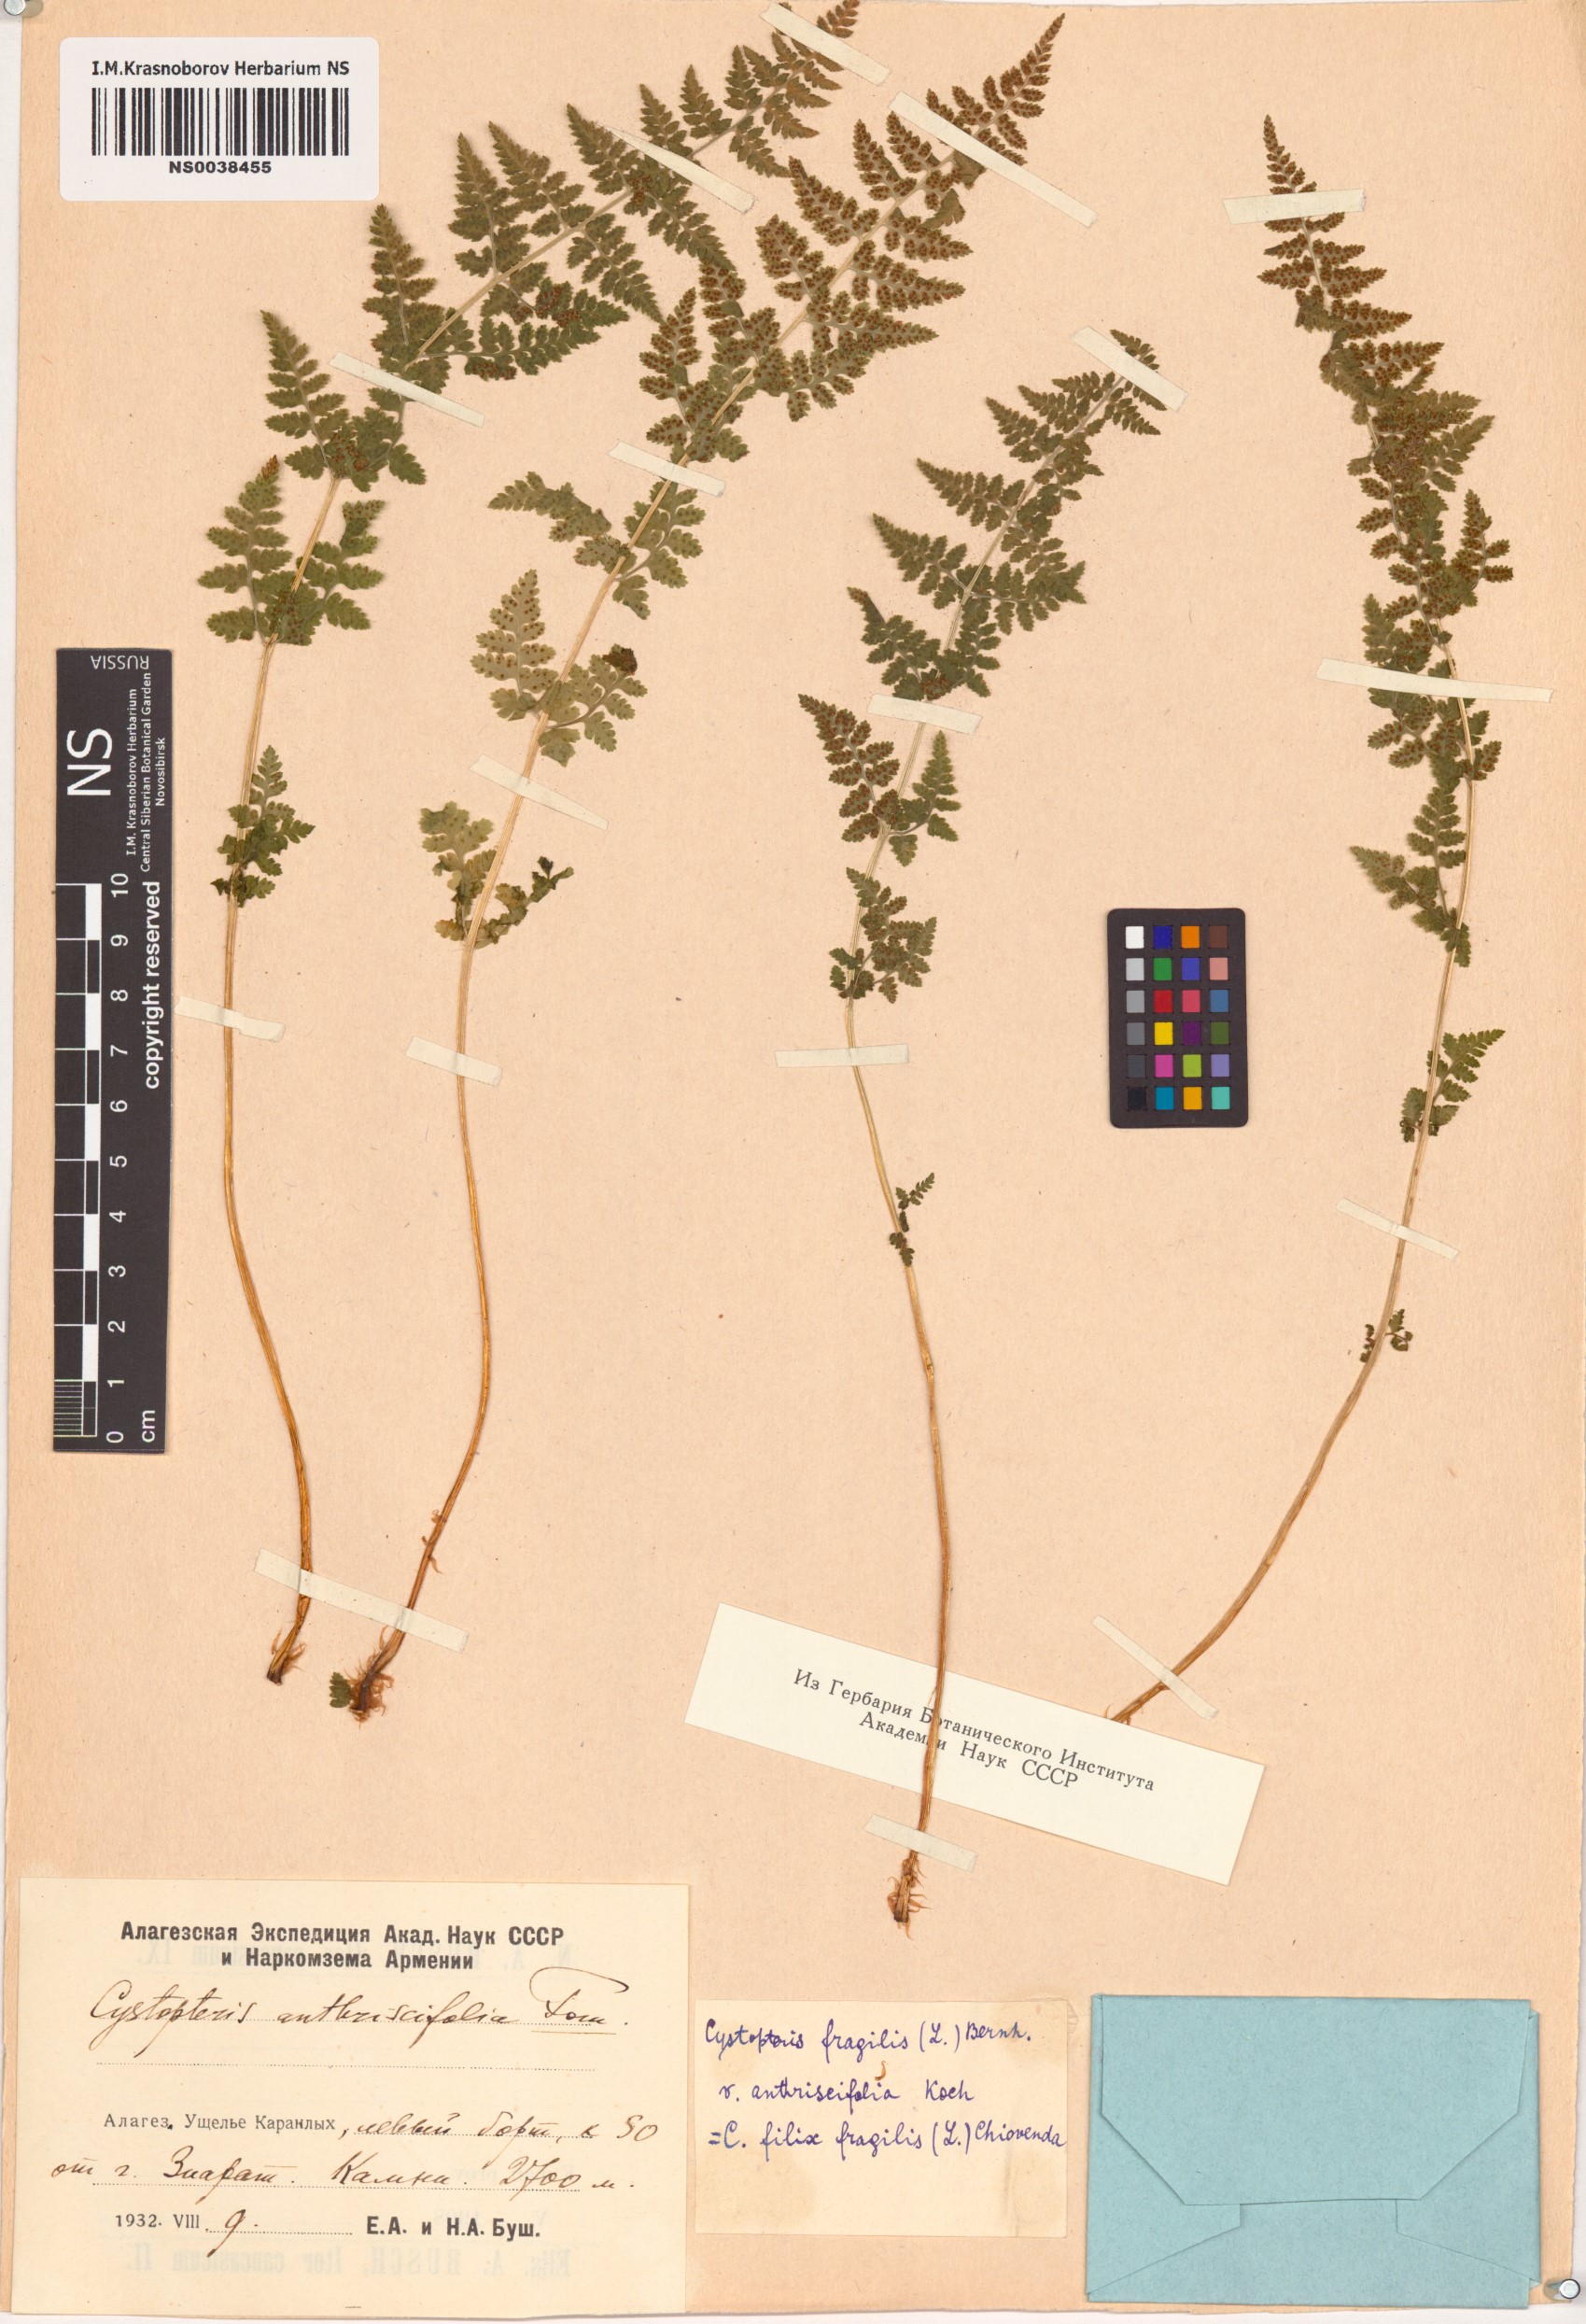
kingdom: Plantae
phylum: Tracheophyta
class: Polypodiopsida
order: Polypodiales
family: Cystopteridaceae
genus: Cystopteris
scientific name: Cystopteris fragilis
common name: Brittle bladder fern
